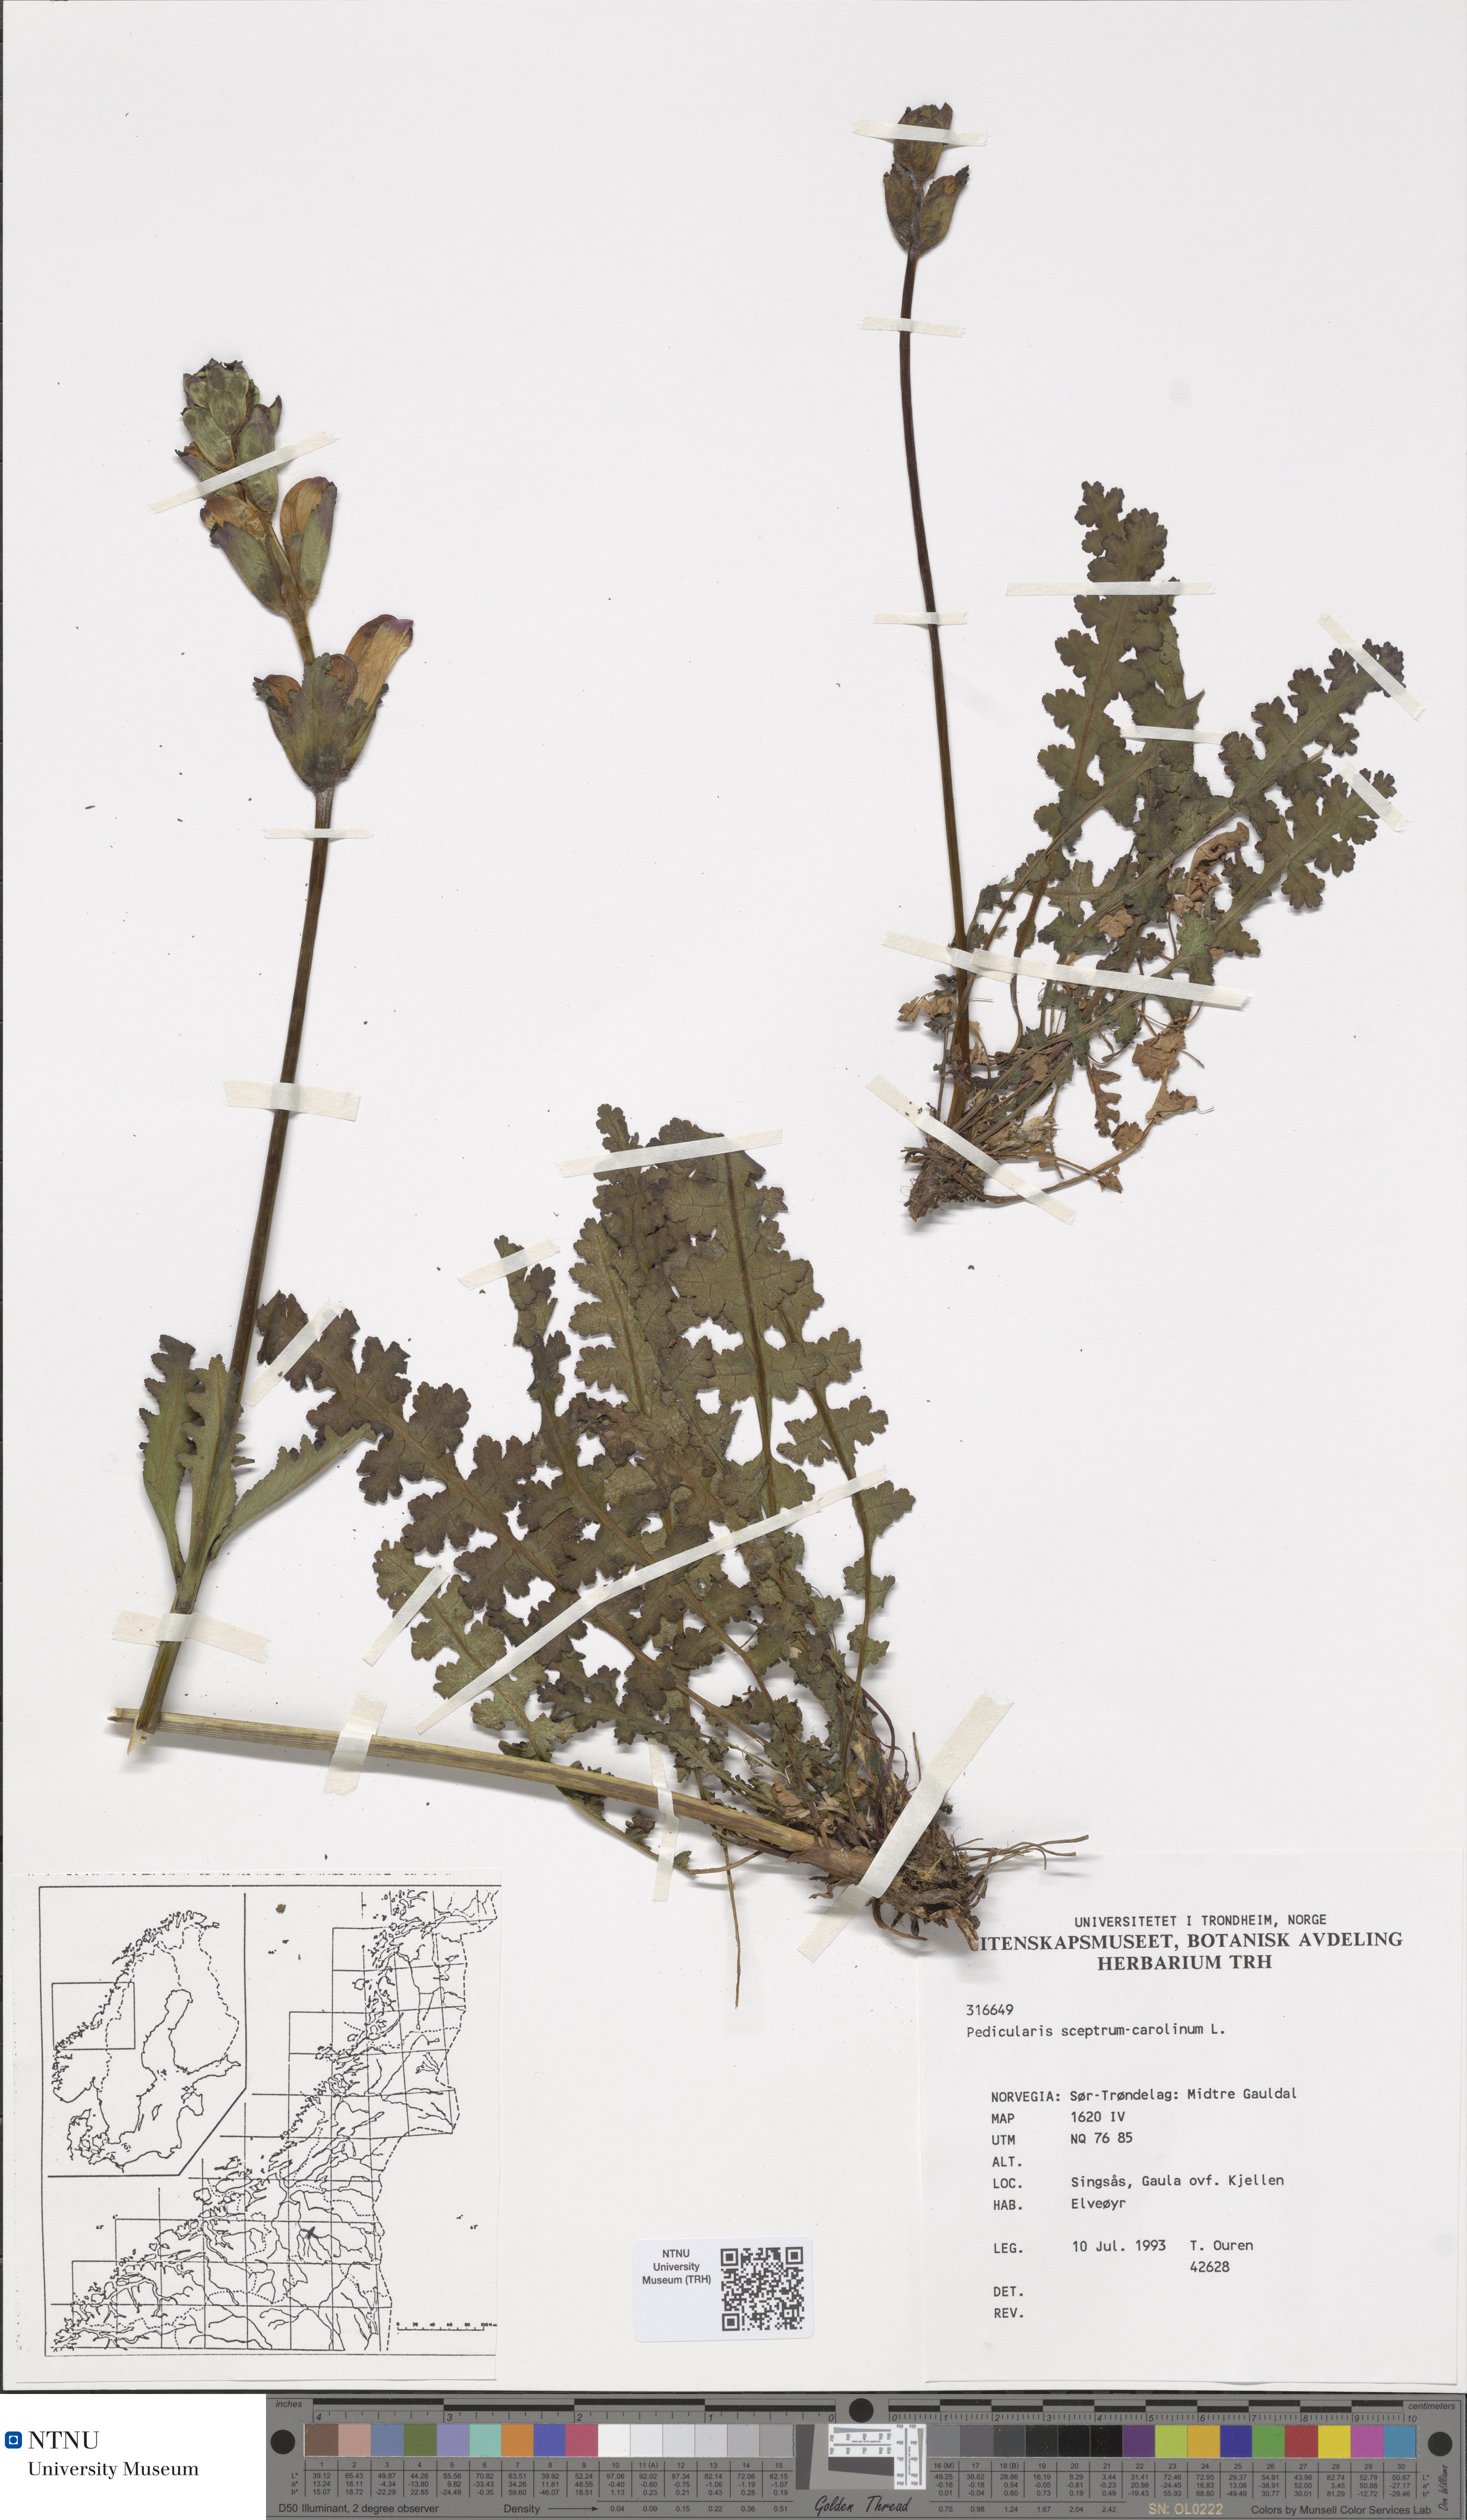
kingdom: Plantae
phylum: Tracheophyta
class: Magnoliopsida
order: Lamiales
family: Orobanchaceae
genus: Pedicularis
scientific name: Pedicularis sceptrum-carolinum
